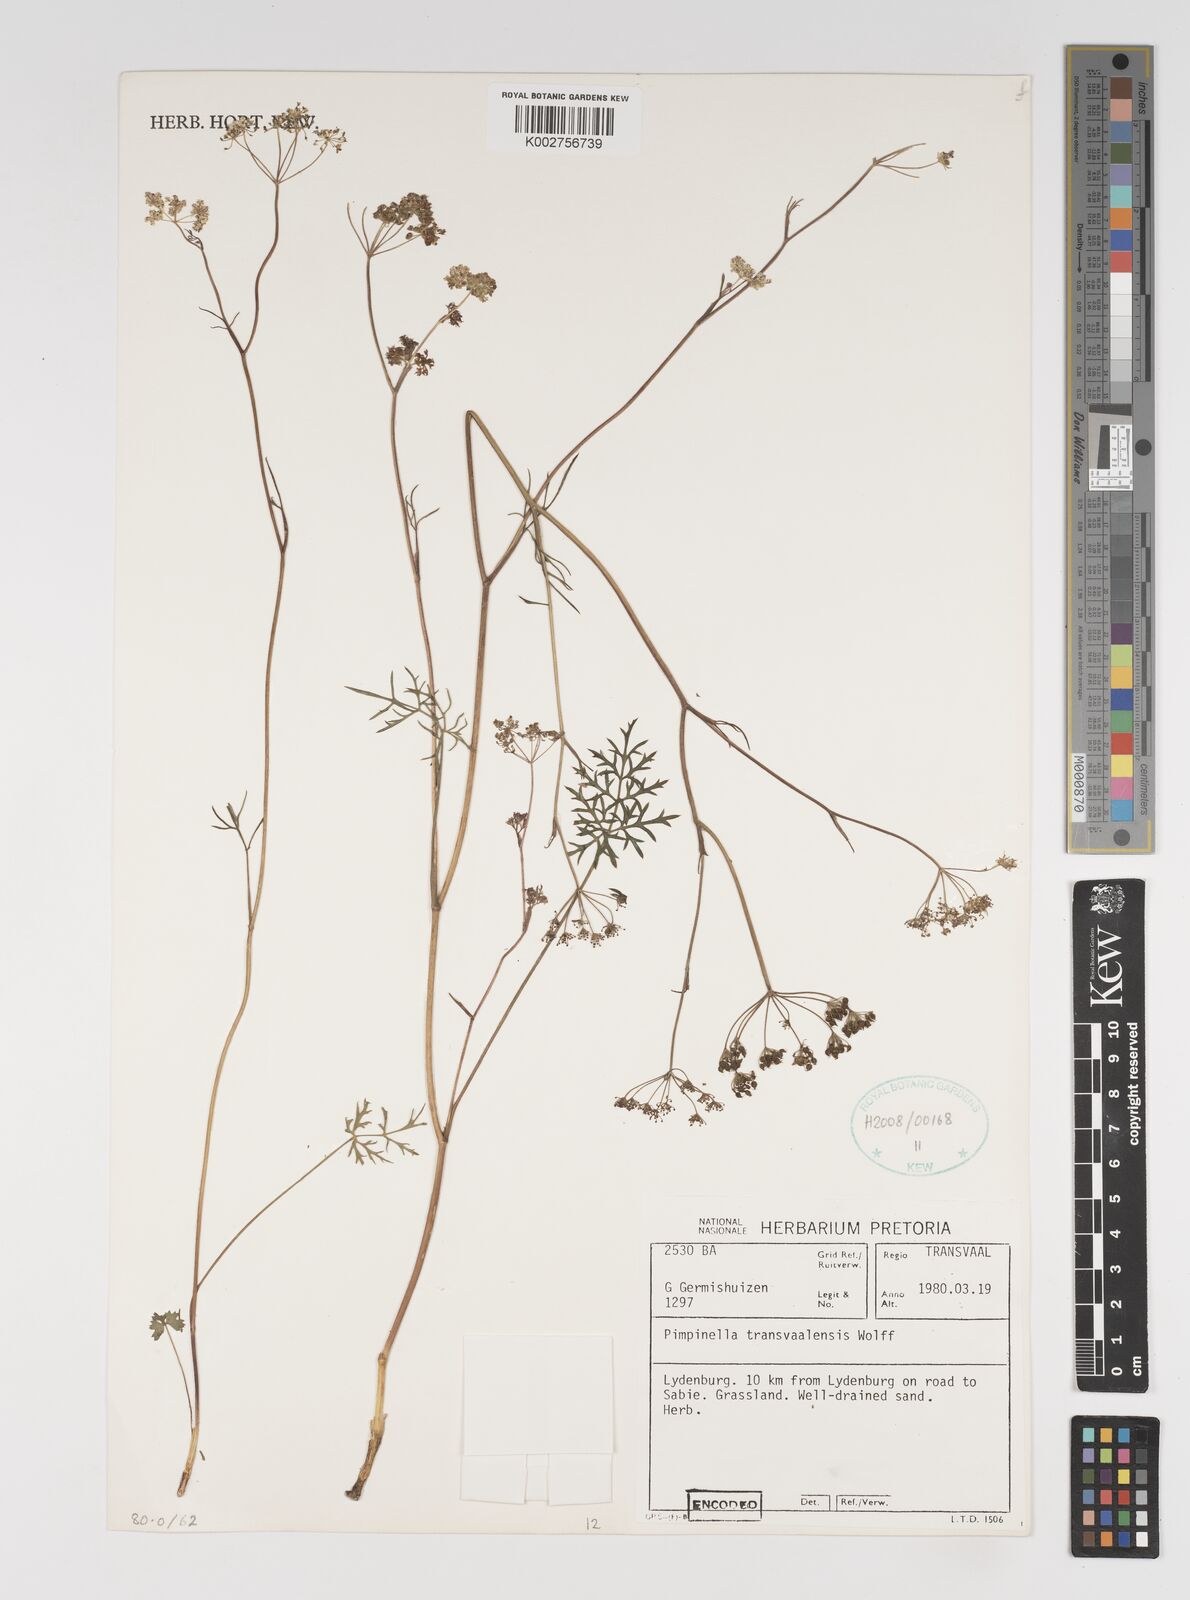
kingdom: Plantae
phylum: Tracheophyta
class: Magnoliopsida
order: Apiales
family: Apiaceae
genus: Pimpinella
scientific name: Pimpinella transvaalensis
